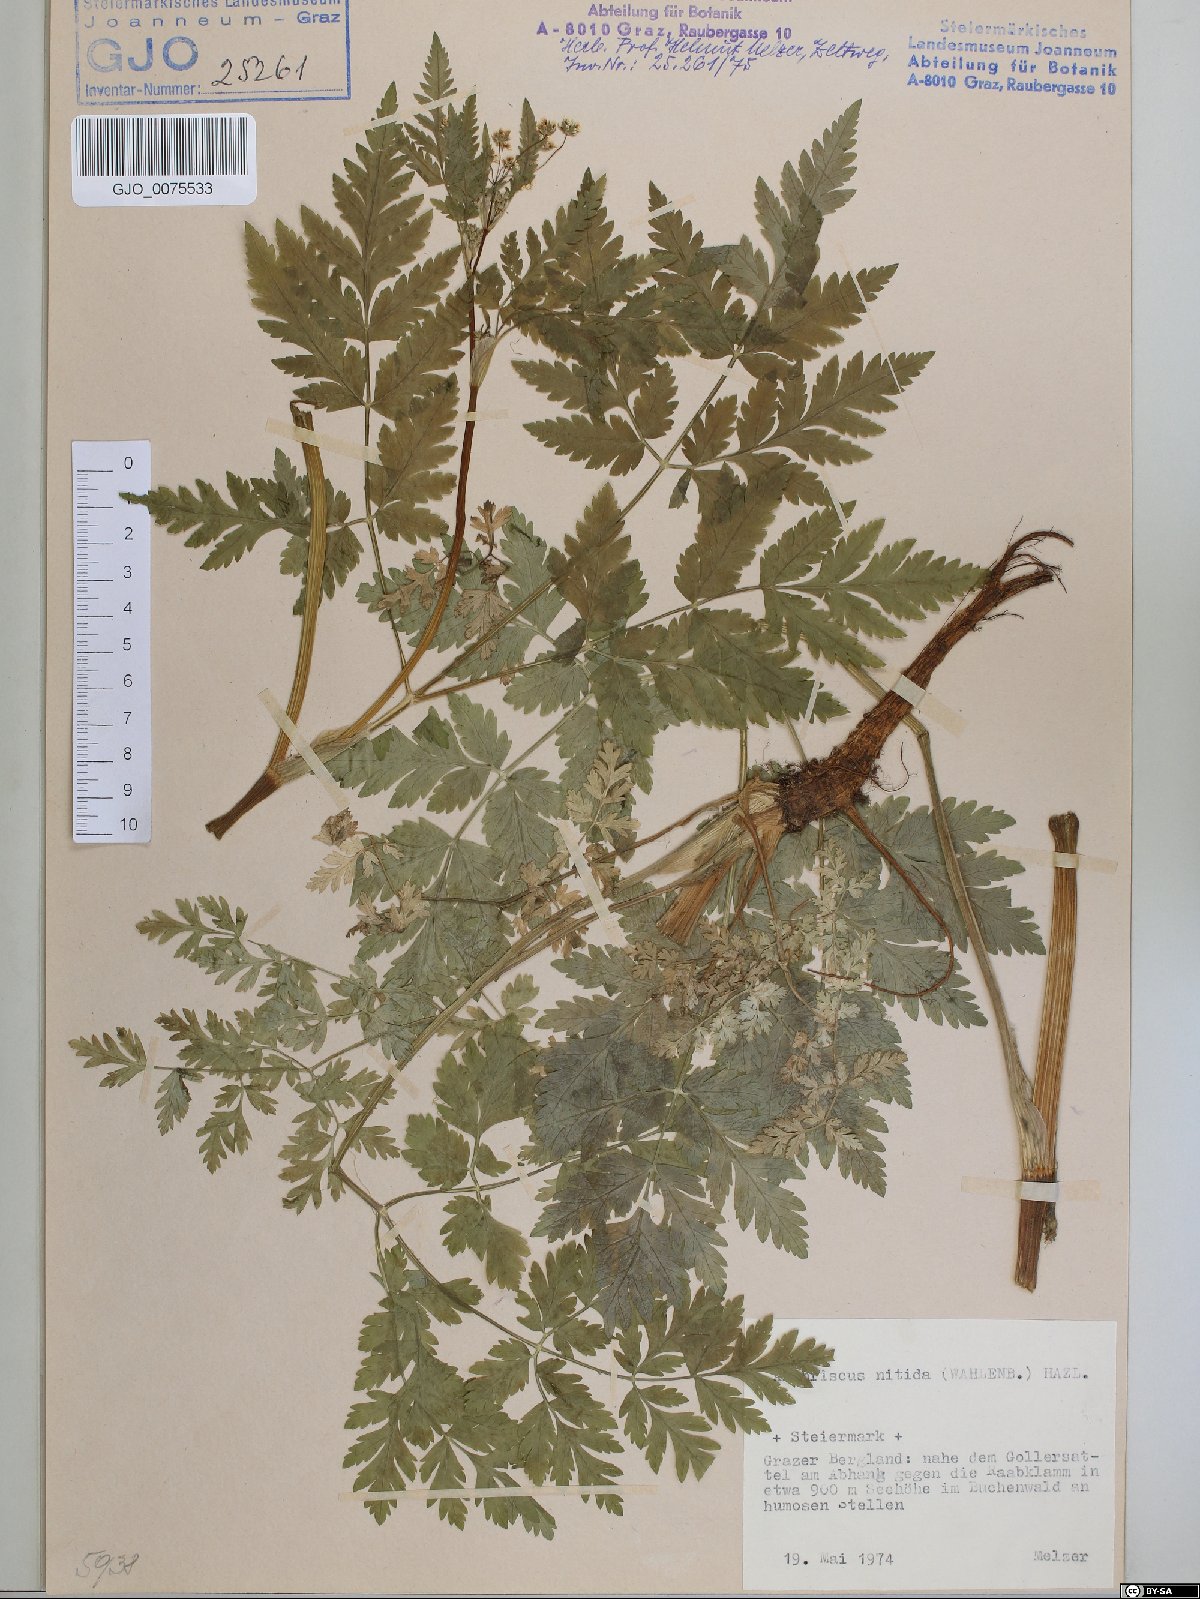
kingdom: Plantae
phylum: Tracheophyta
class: Magnoliopsida
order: Apiales
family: Apiaceae
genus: Anthriscus
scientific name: Anthriscus nitida
